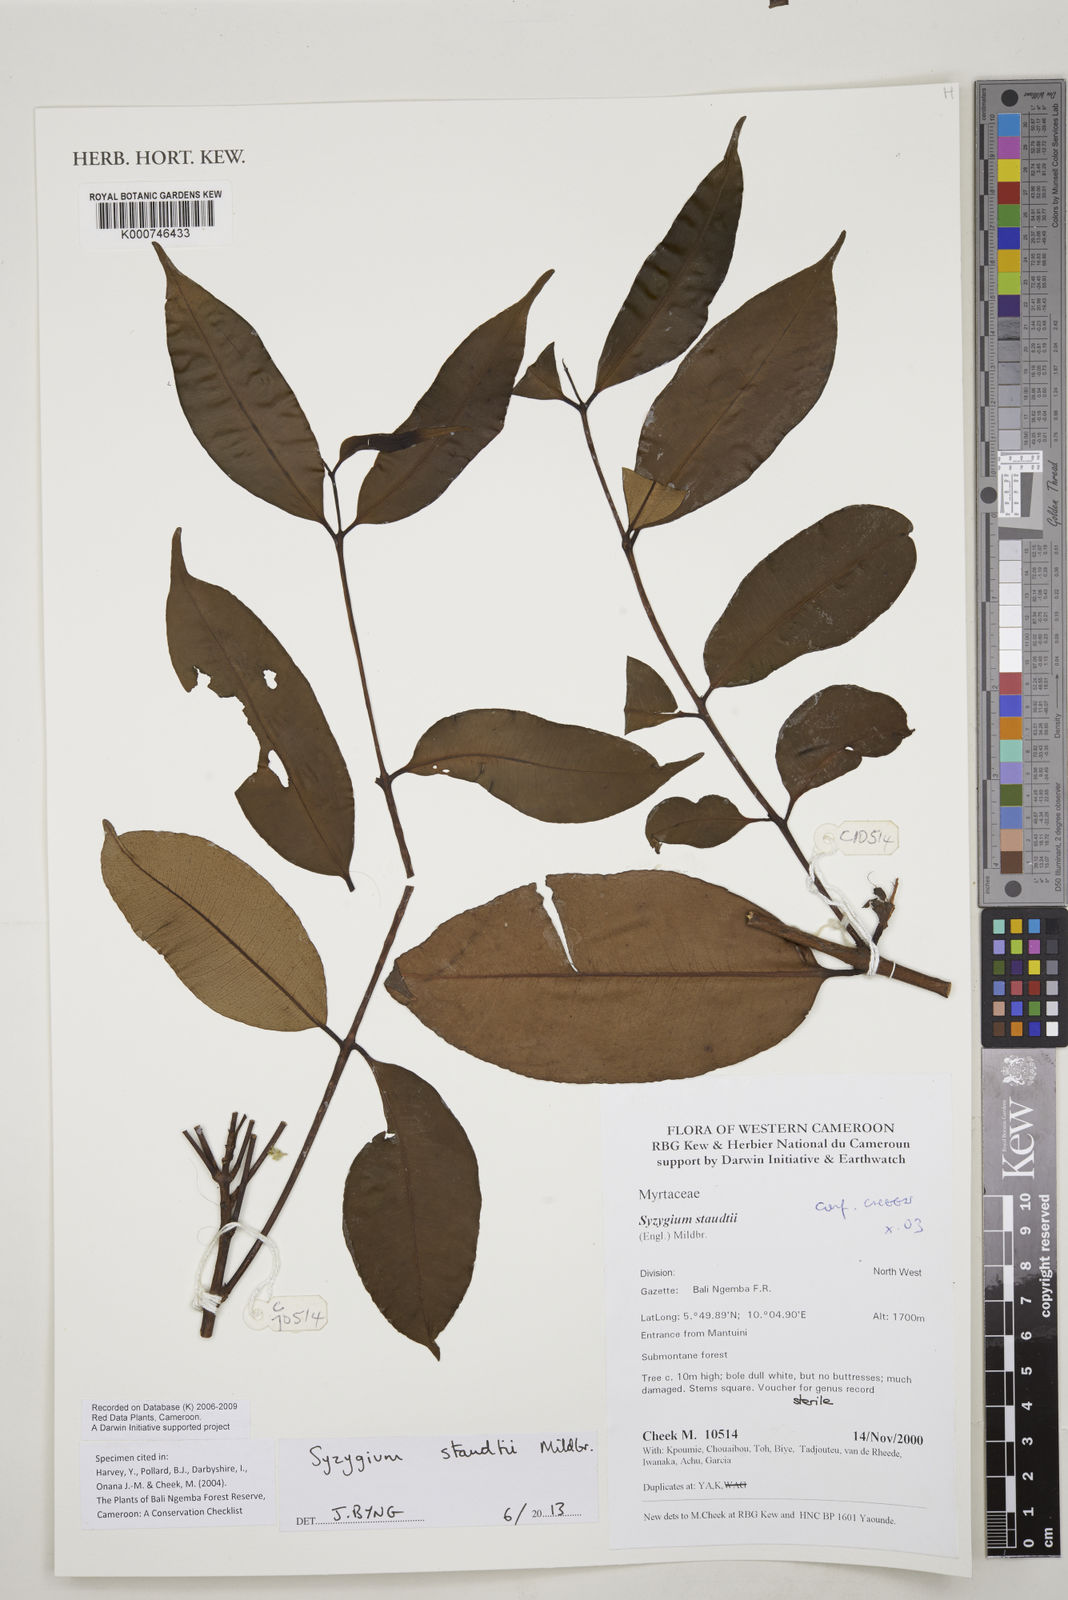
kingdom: Plantae
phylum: Tracheophyta
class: Magnoliopsida
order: Myrtales
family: Myrtaceae
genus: Syzygium
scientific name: Syzygium staudtii
